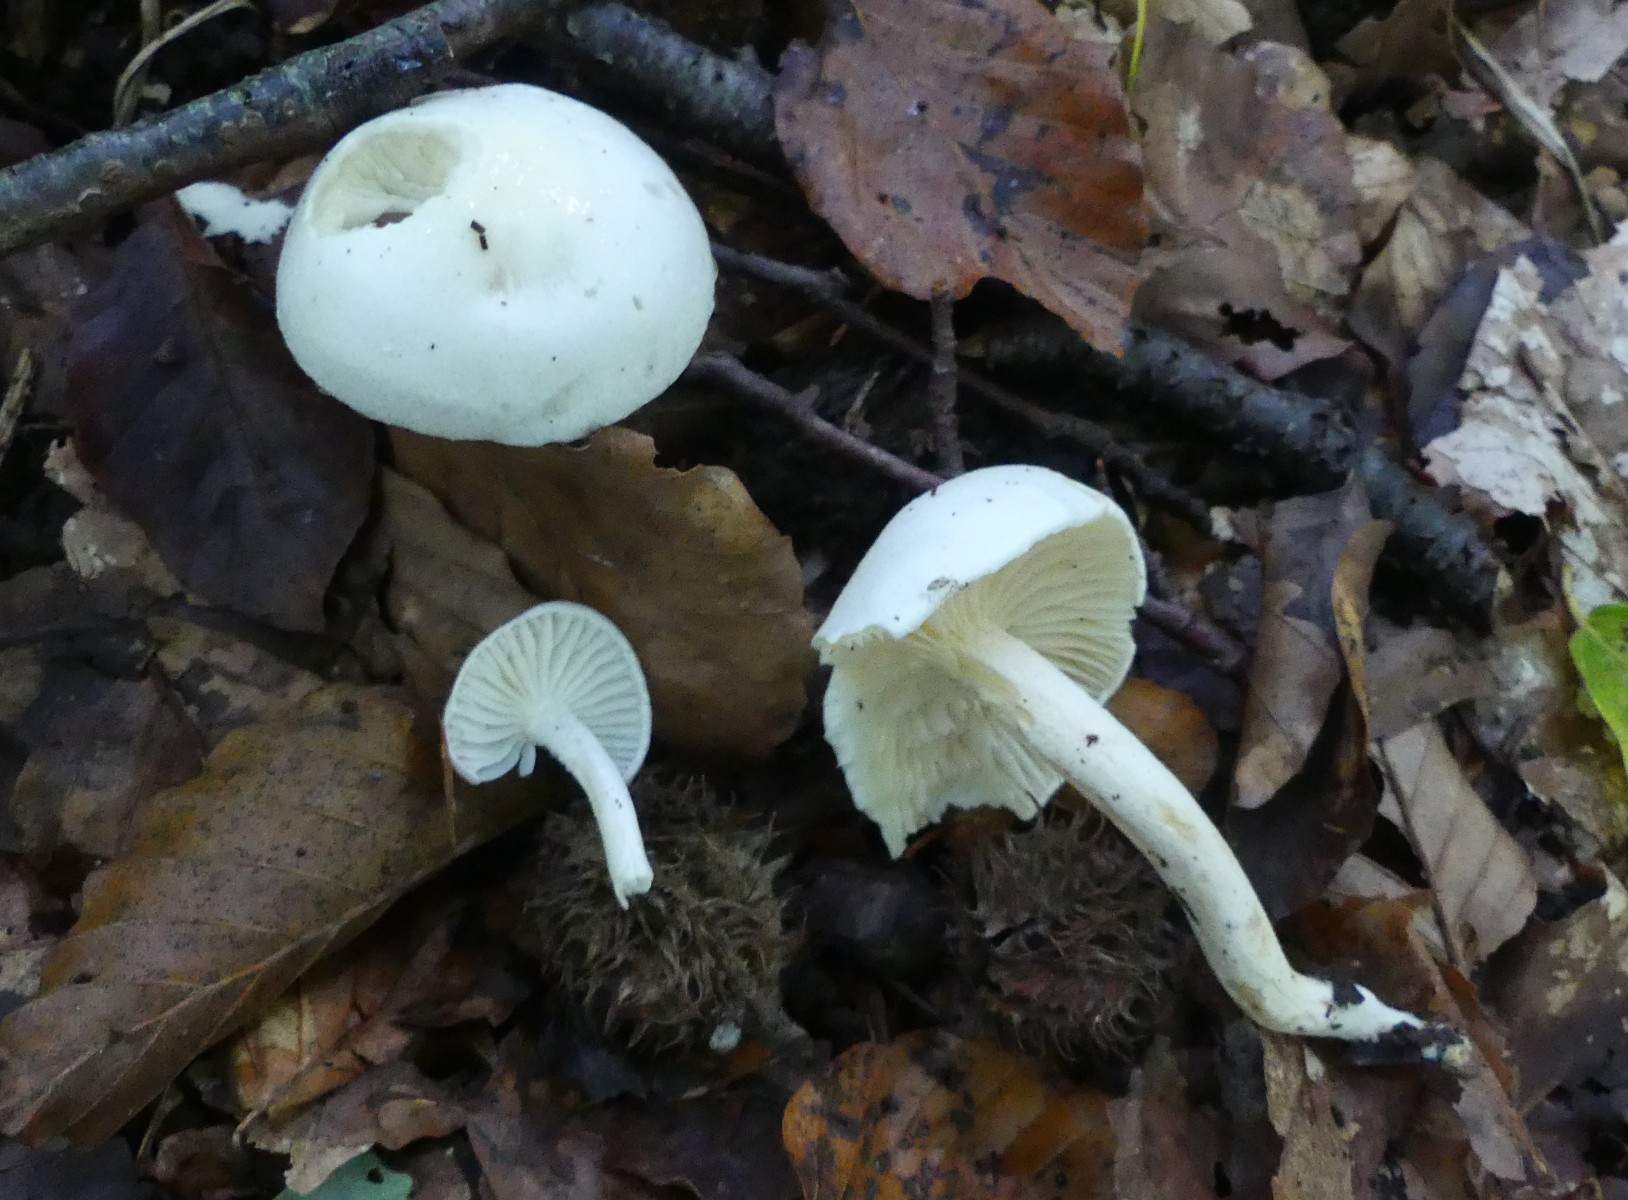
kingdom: Fungi
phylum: Basidiomycota
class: Agaricomycetes
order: Agaricales
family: Hygrophoraceae
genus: Hygrophorus
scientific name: Hygrophorus discoxanthus
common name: ildelugtende sneglehat
